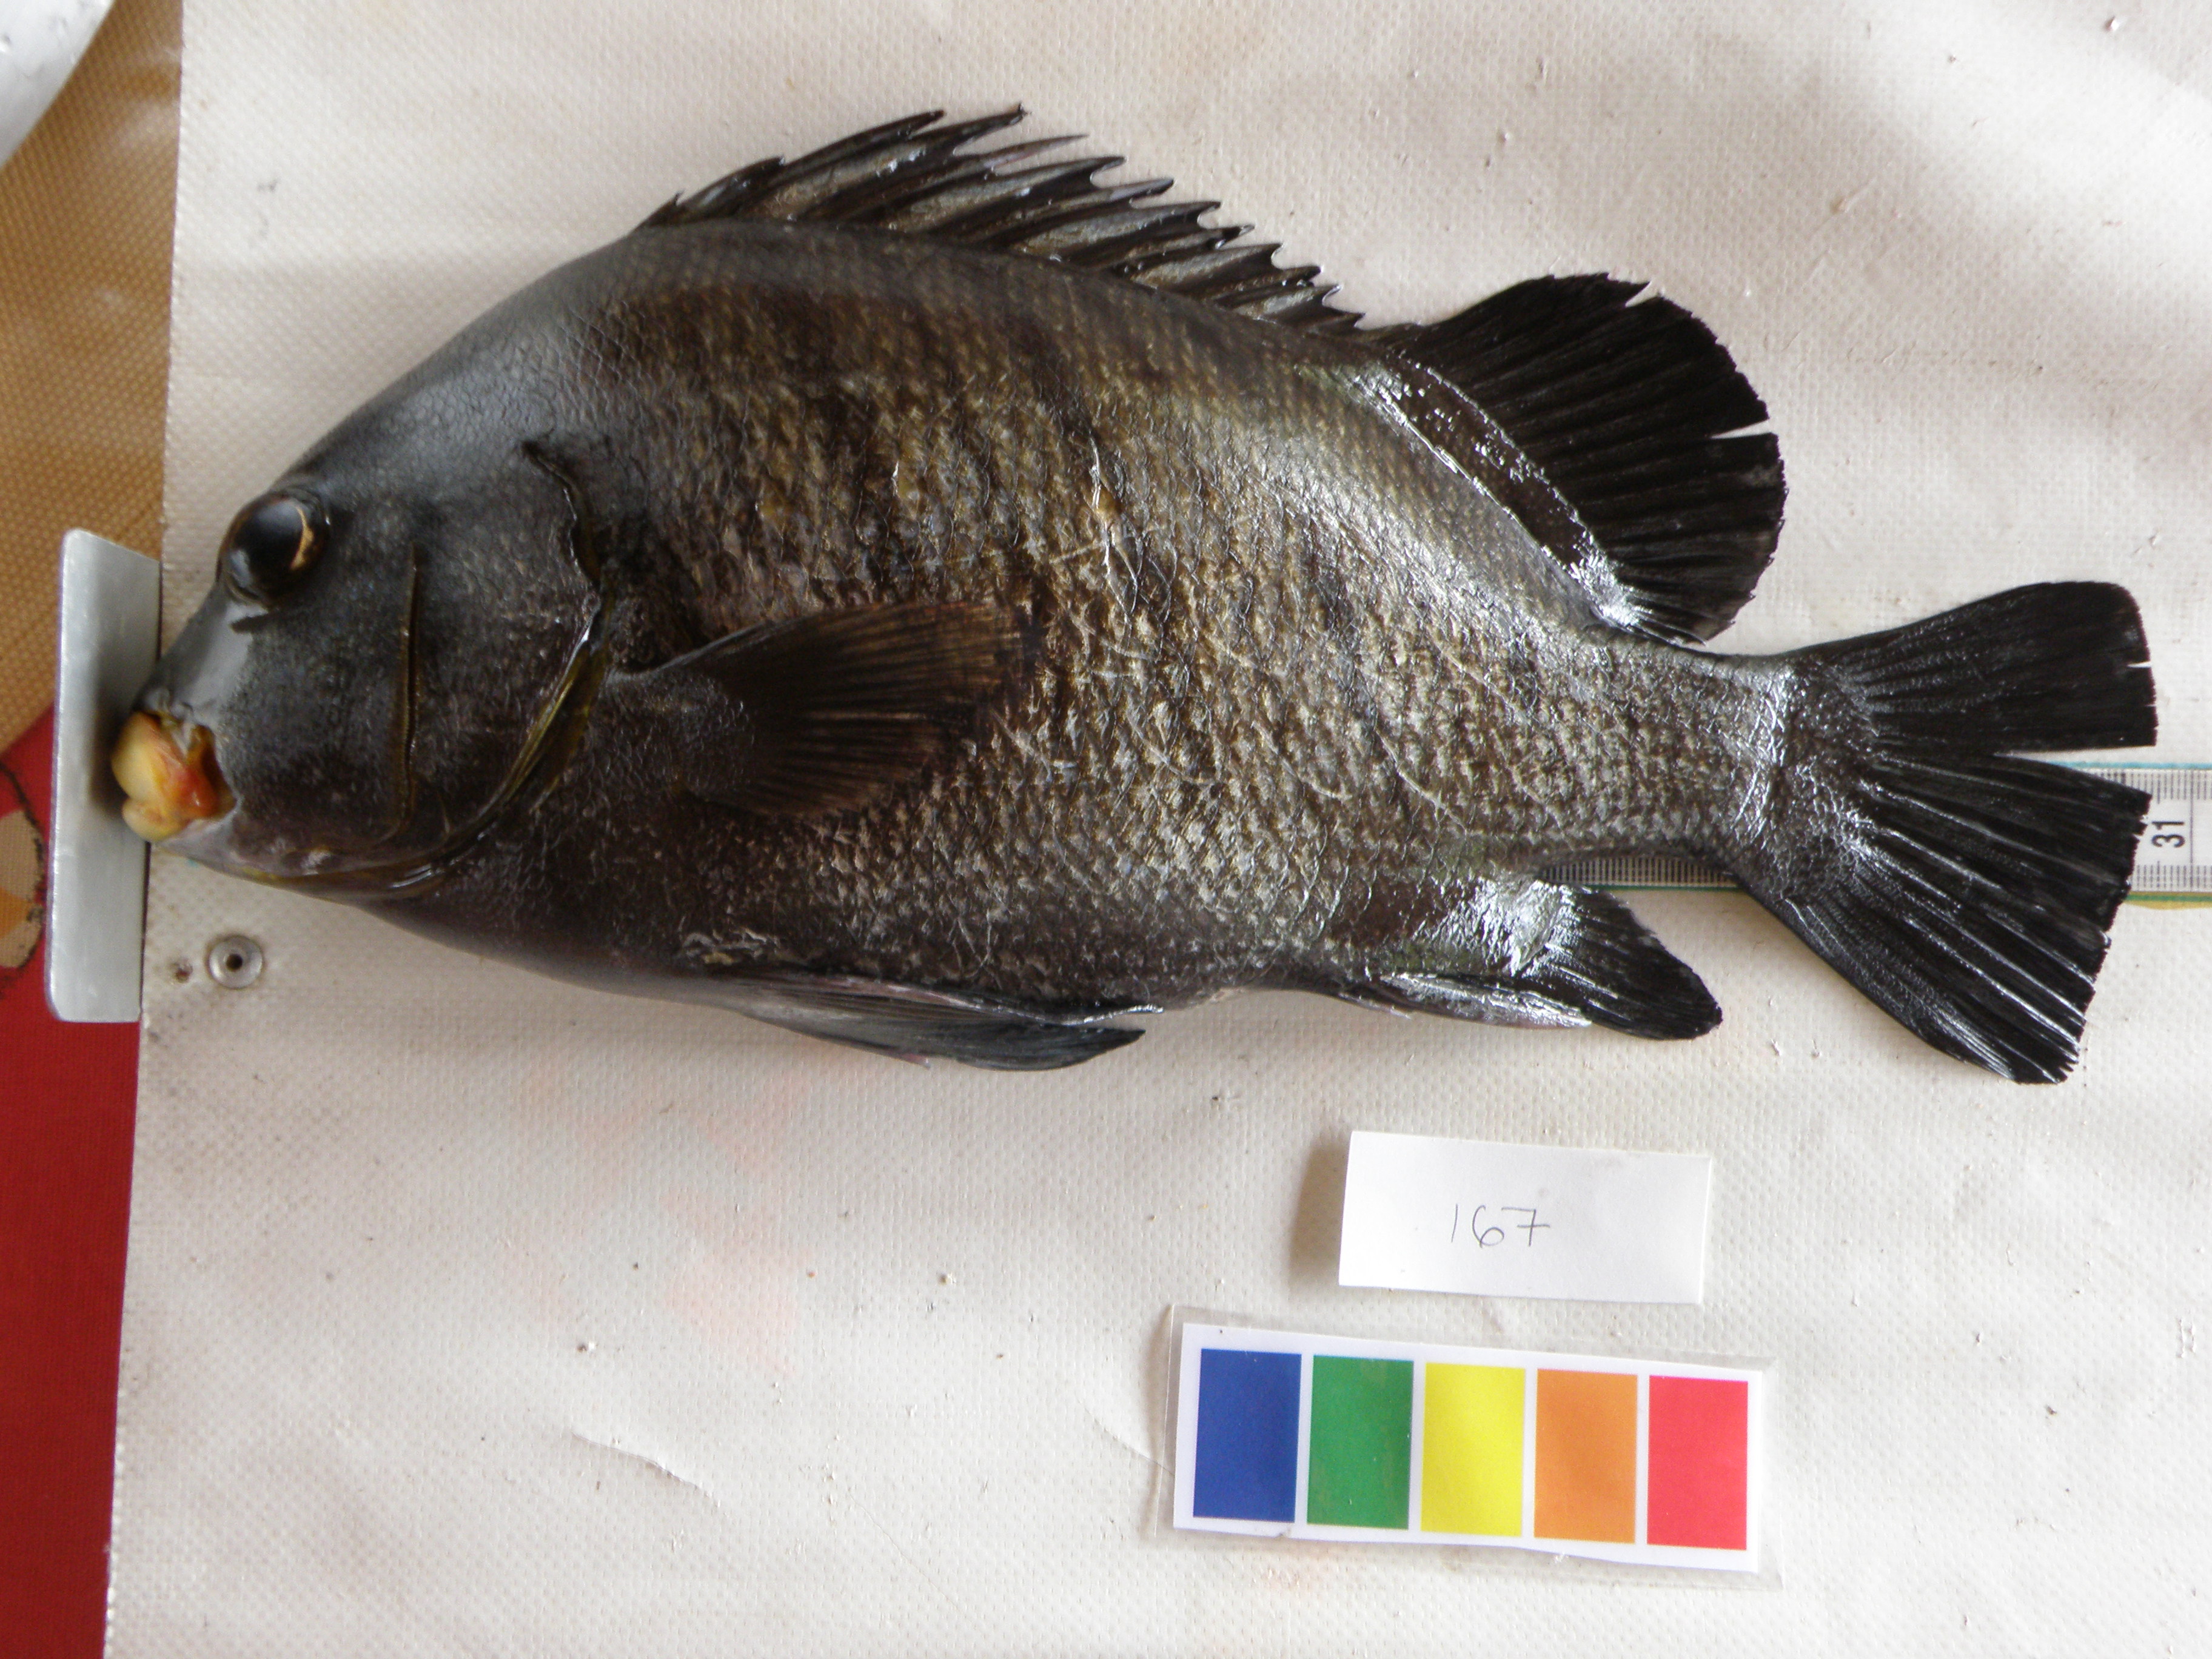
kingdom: Animalia
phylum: Chordata
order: Perciformes
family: Haemulidae
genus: Plectorhinchus
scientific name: Plectorhinchus plagiodesmus
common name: Barred rubberlip
